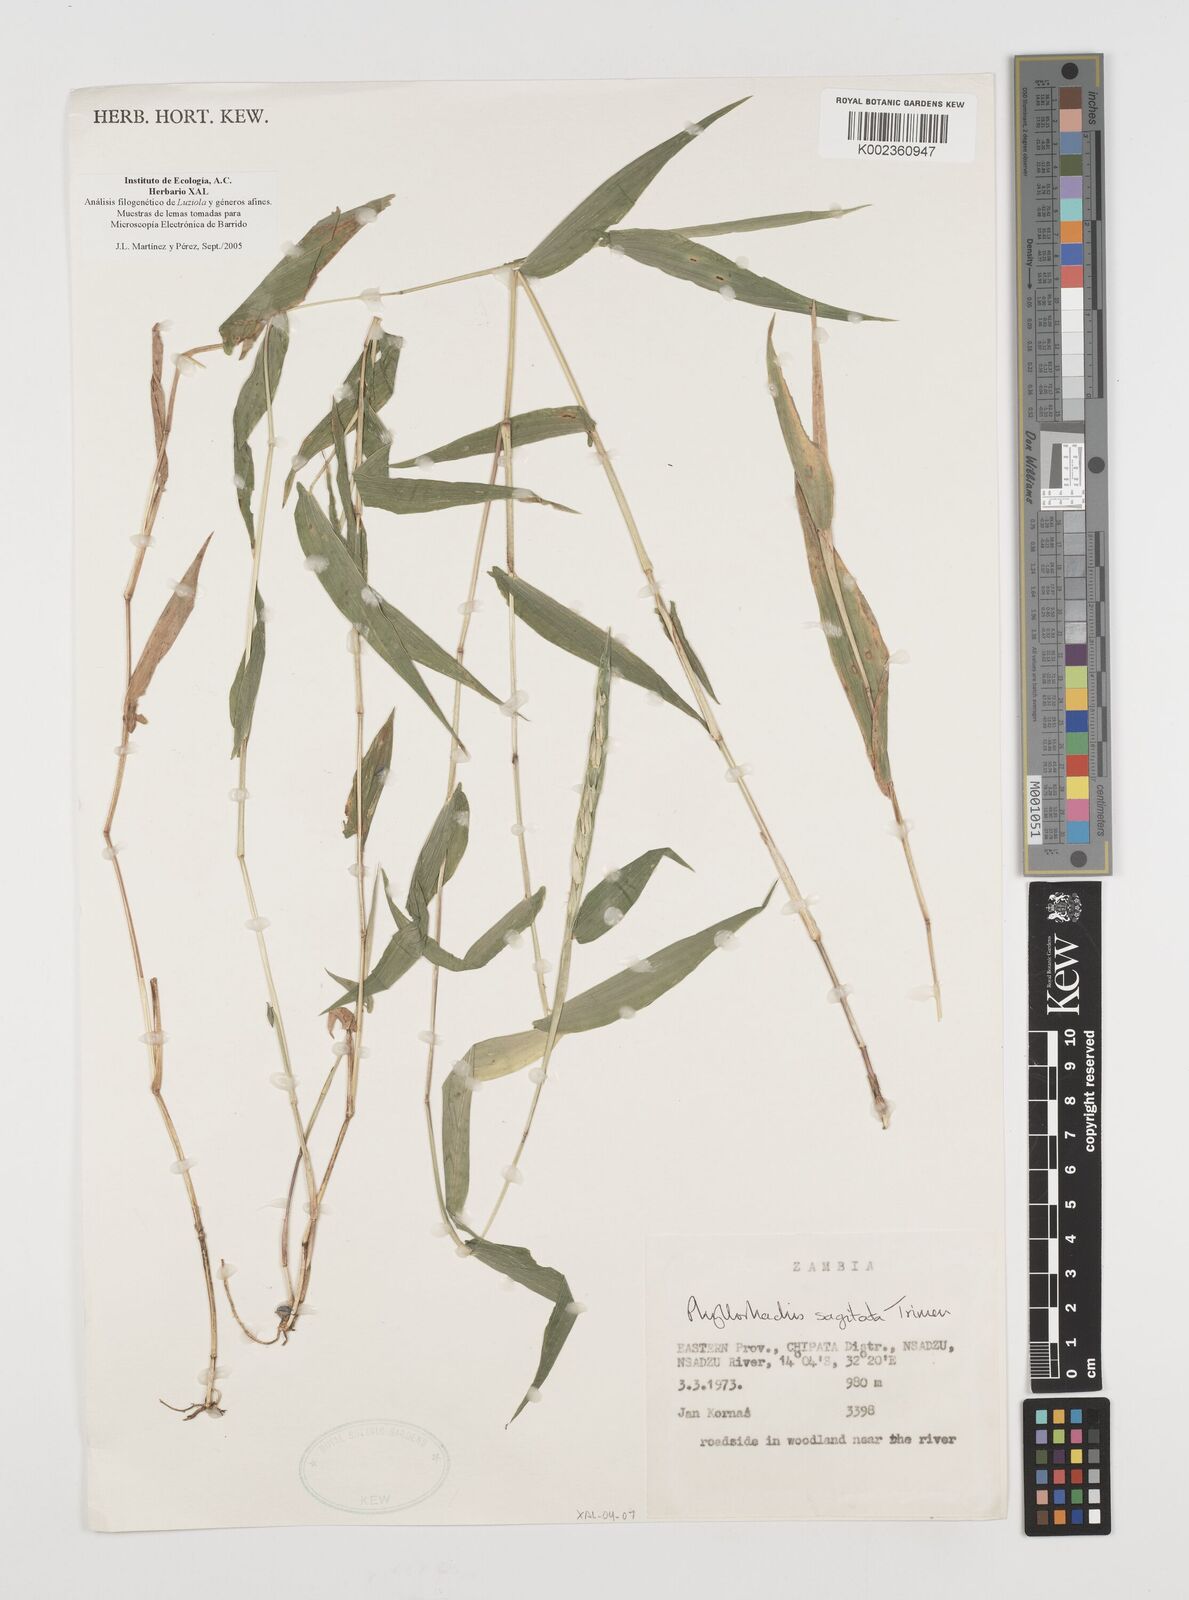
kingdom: Plantae
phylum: Tracheophyta
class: Liliopsida
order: Poales
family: Poaceae
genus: Phyllorachis
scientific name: Phyllorachis sagittata
